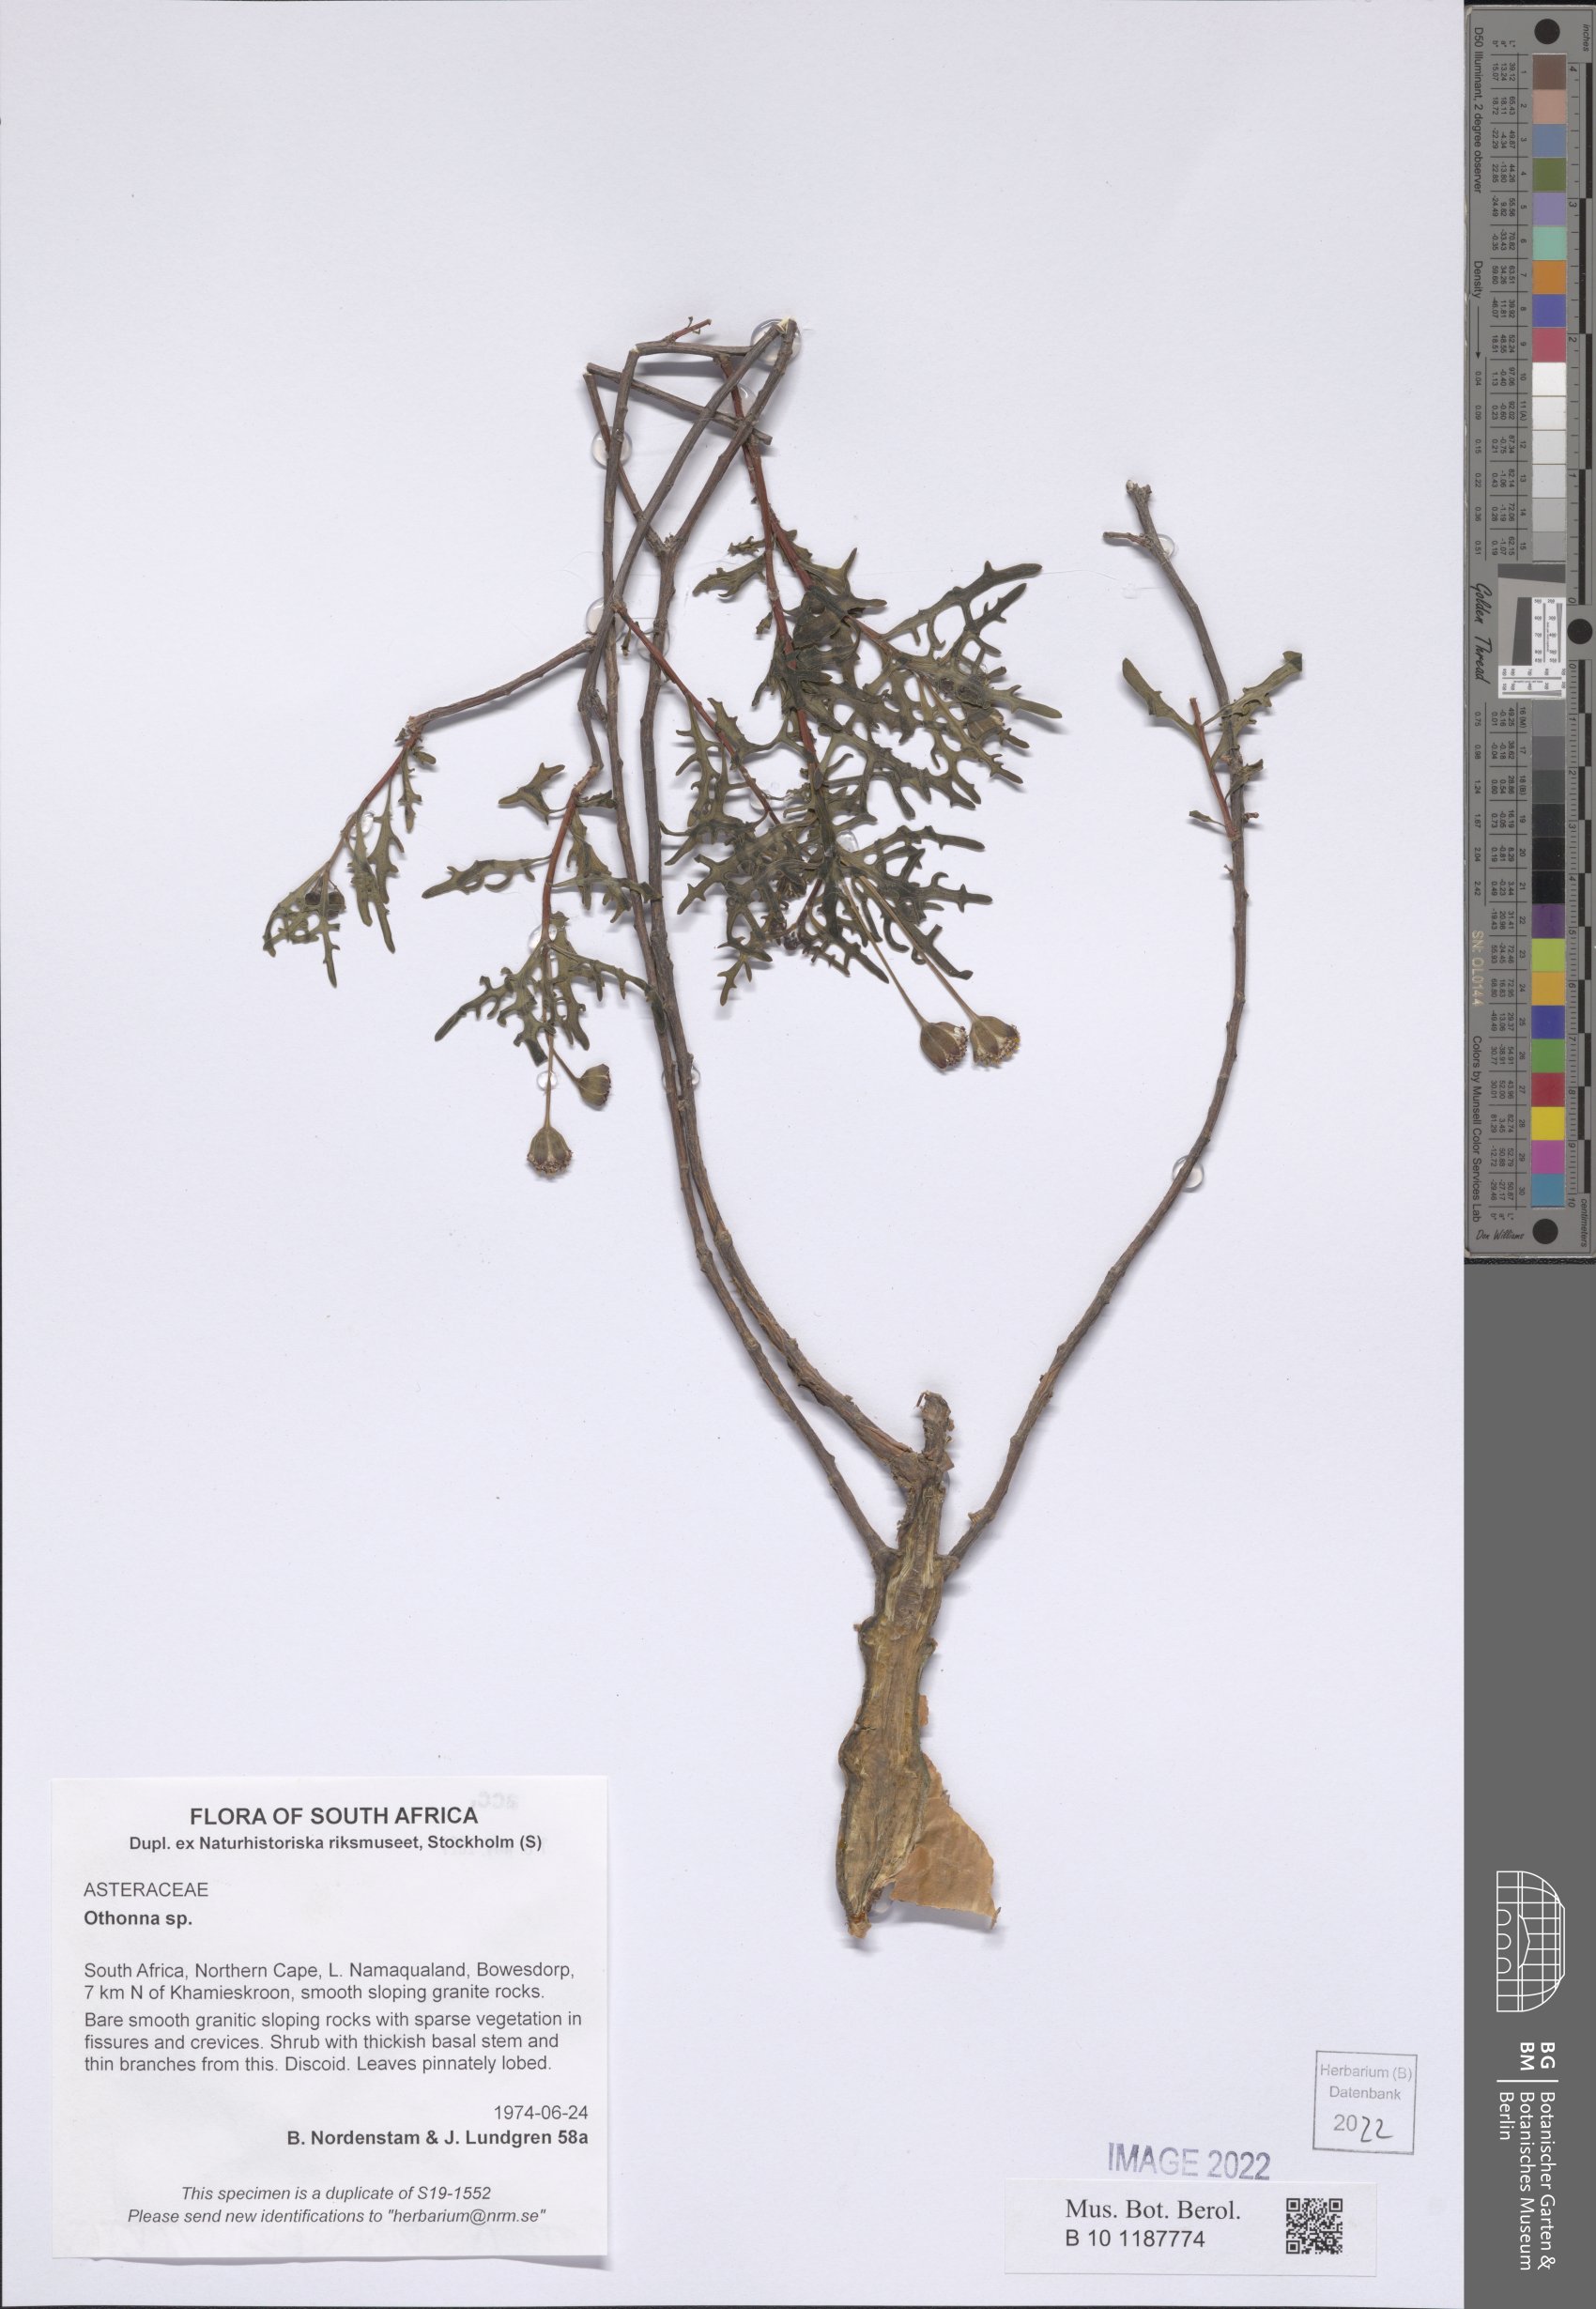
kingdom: Plantae
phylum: Tracheophyta
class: Magnoliopsida
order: Asterales
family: Asteraceae
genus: Othonna
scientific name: Othonna
